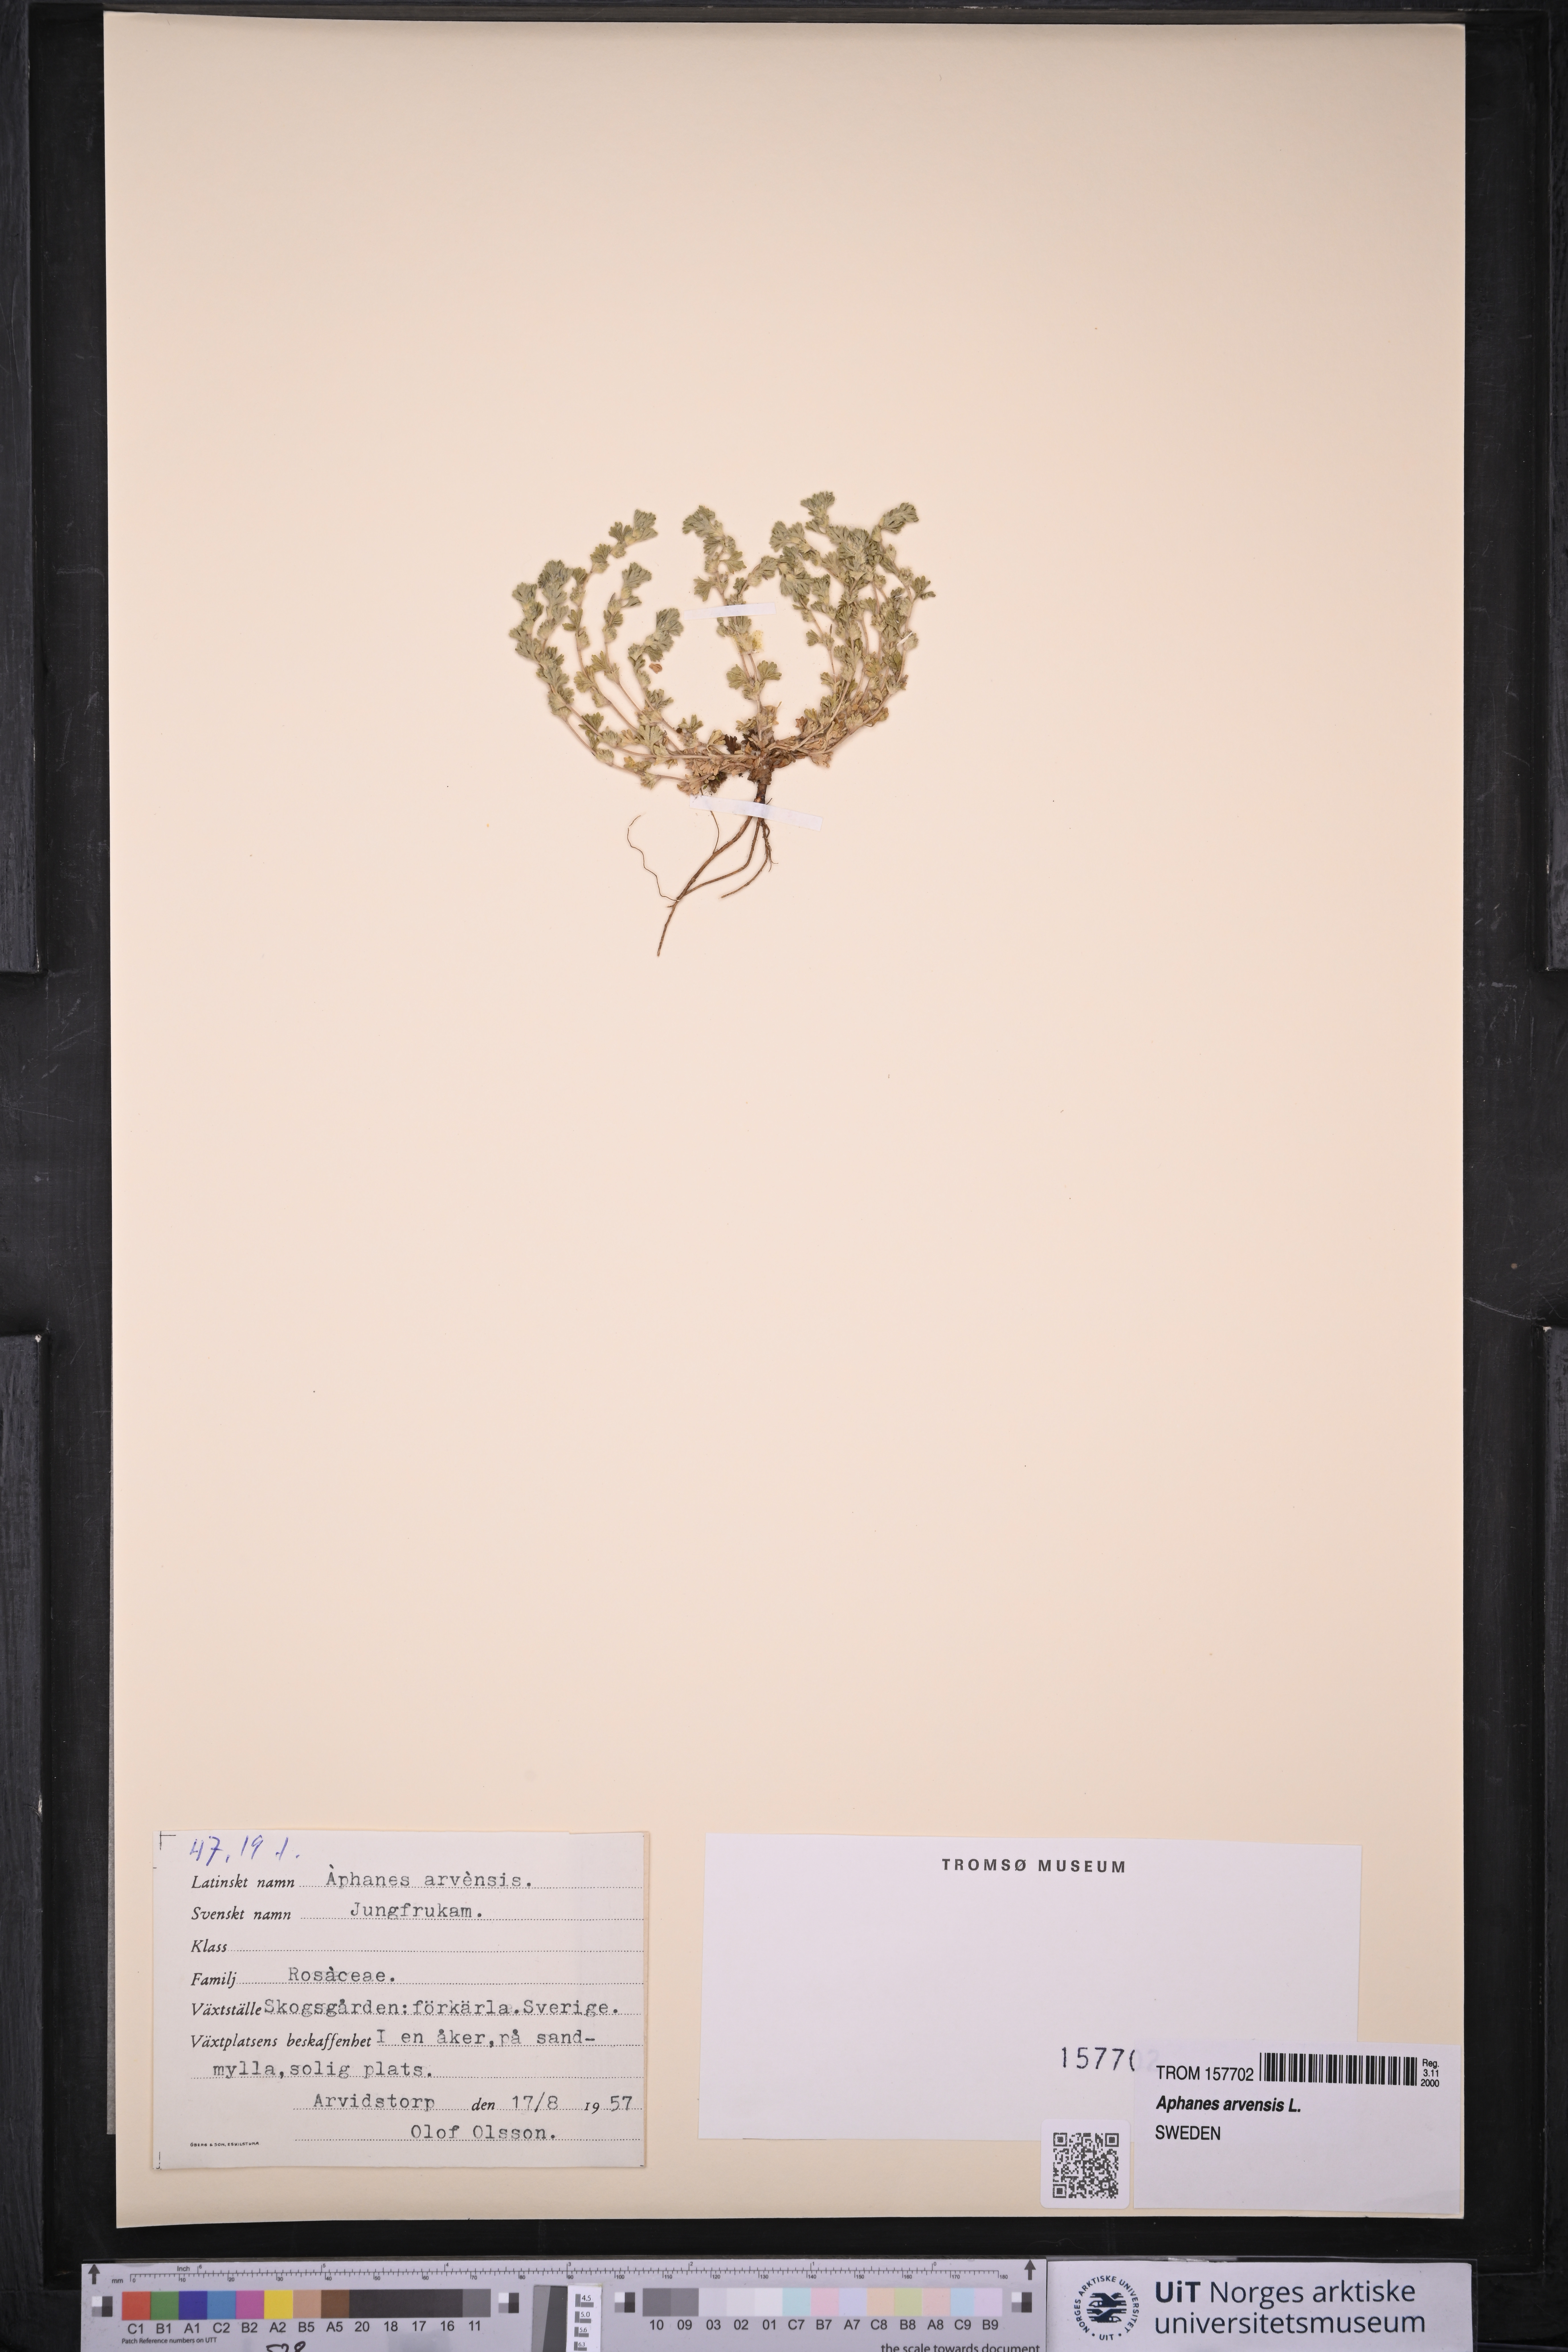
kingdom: Plantae
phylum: Tracheophyta
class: Magnoliopsida
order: Rosales
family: Rosaceae
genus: Aphanes
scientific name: Aphanes arvensis
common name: Parsley-piert
